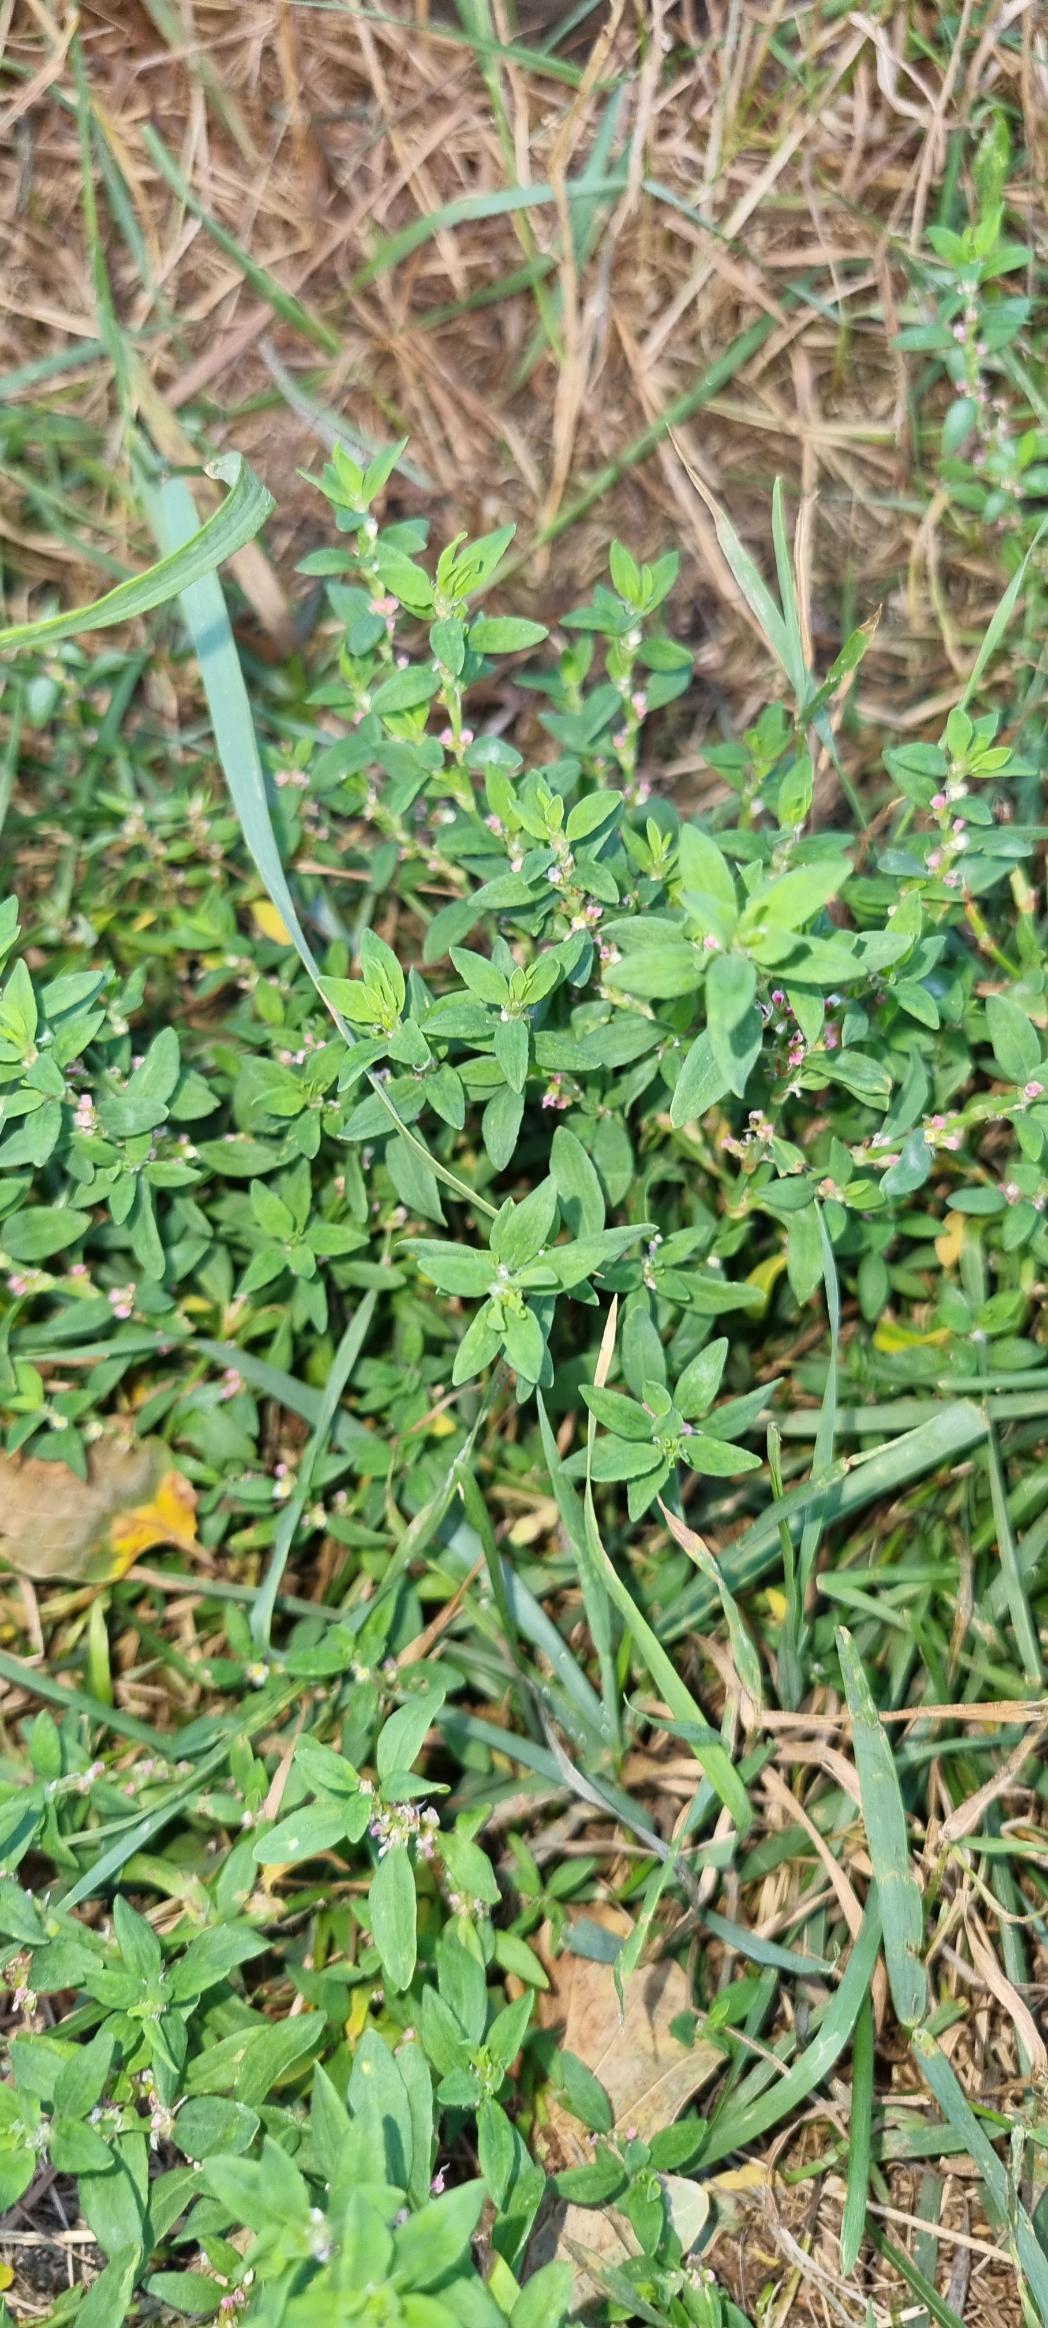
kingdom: Plantae
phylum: Tracheophyta
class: Magnoliopsida
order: Caryophyllales
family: Polygonaceae
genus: Polygonum
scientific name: Polygonum arenastrum
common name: Liggende vej-pileurt
